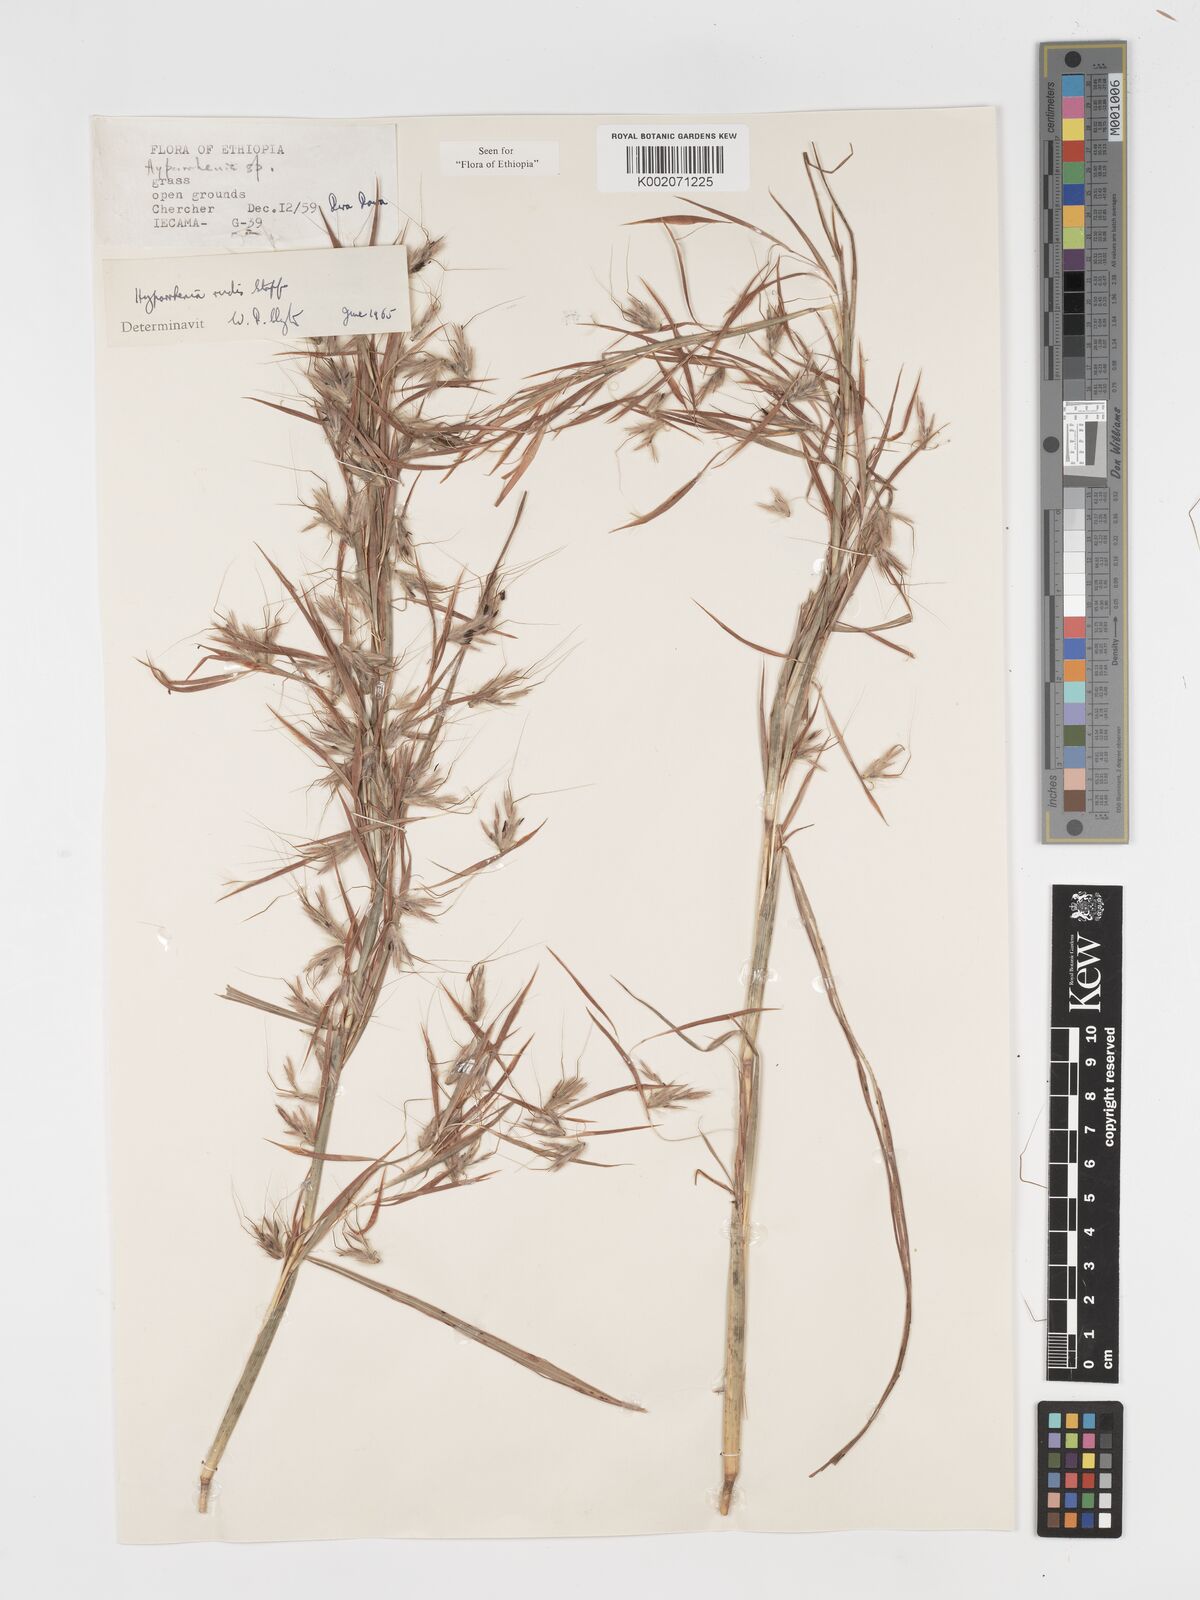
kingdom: Plantae
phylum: Tracheophyta
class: Liliopsida
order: Poales
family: Poaceae
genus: Hyparrhenia
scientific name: Hyparrhenia rudis
